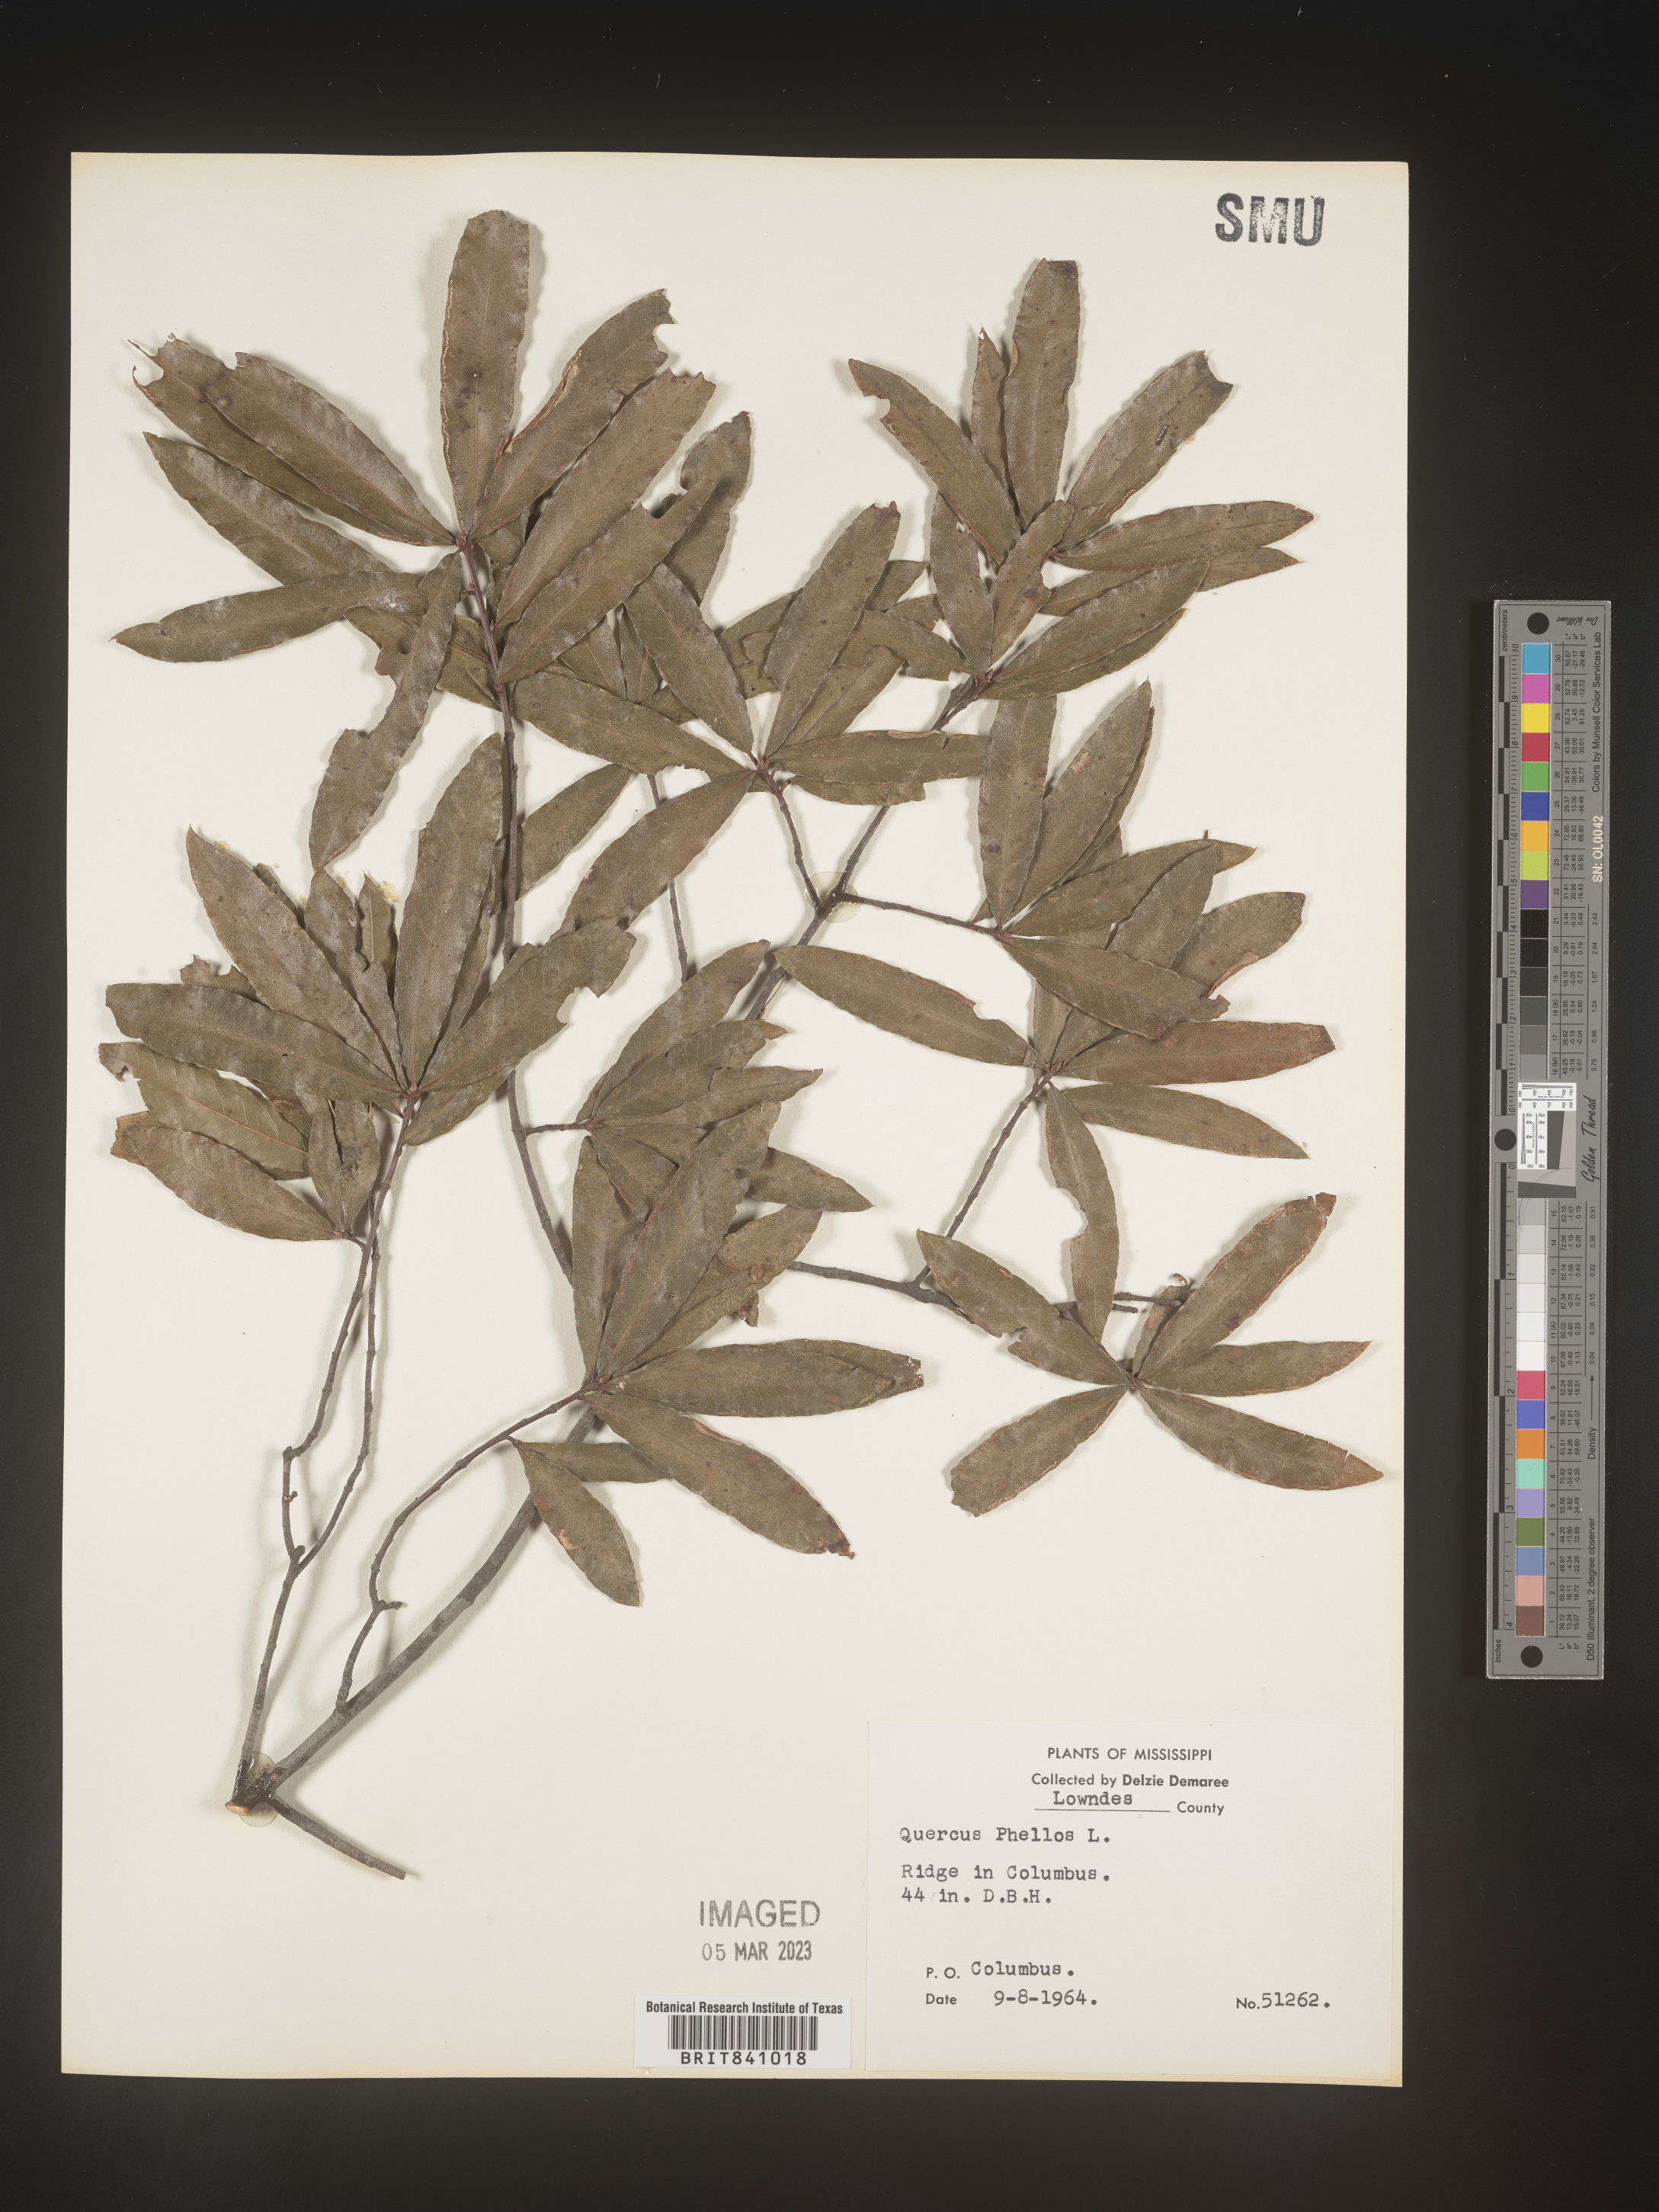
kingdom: Plantae
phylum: Tracheophyta
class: Magnoliopsida
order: Fagales
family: Fagaceae
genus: Quercus
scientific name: Quercus phellos
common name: Willow oak
